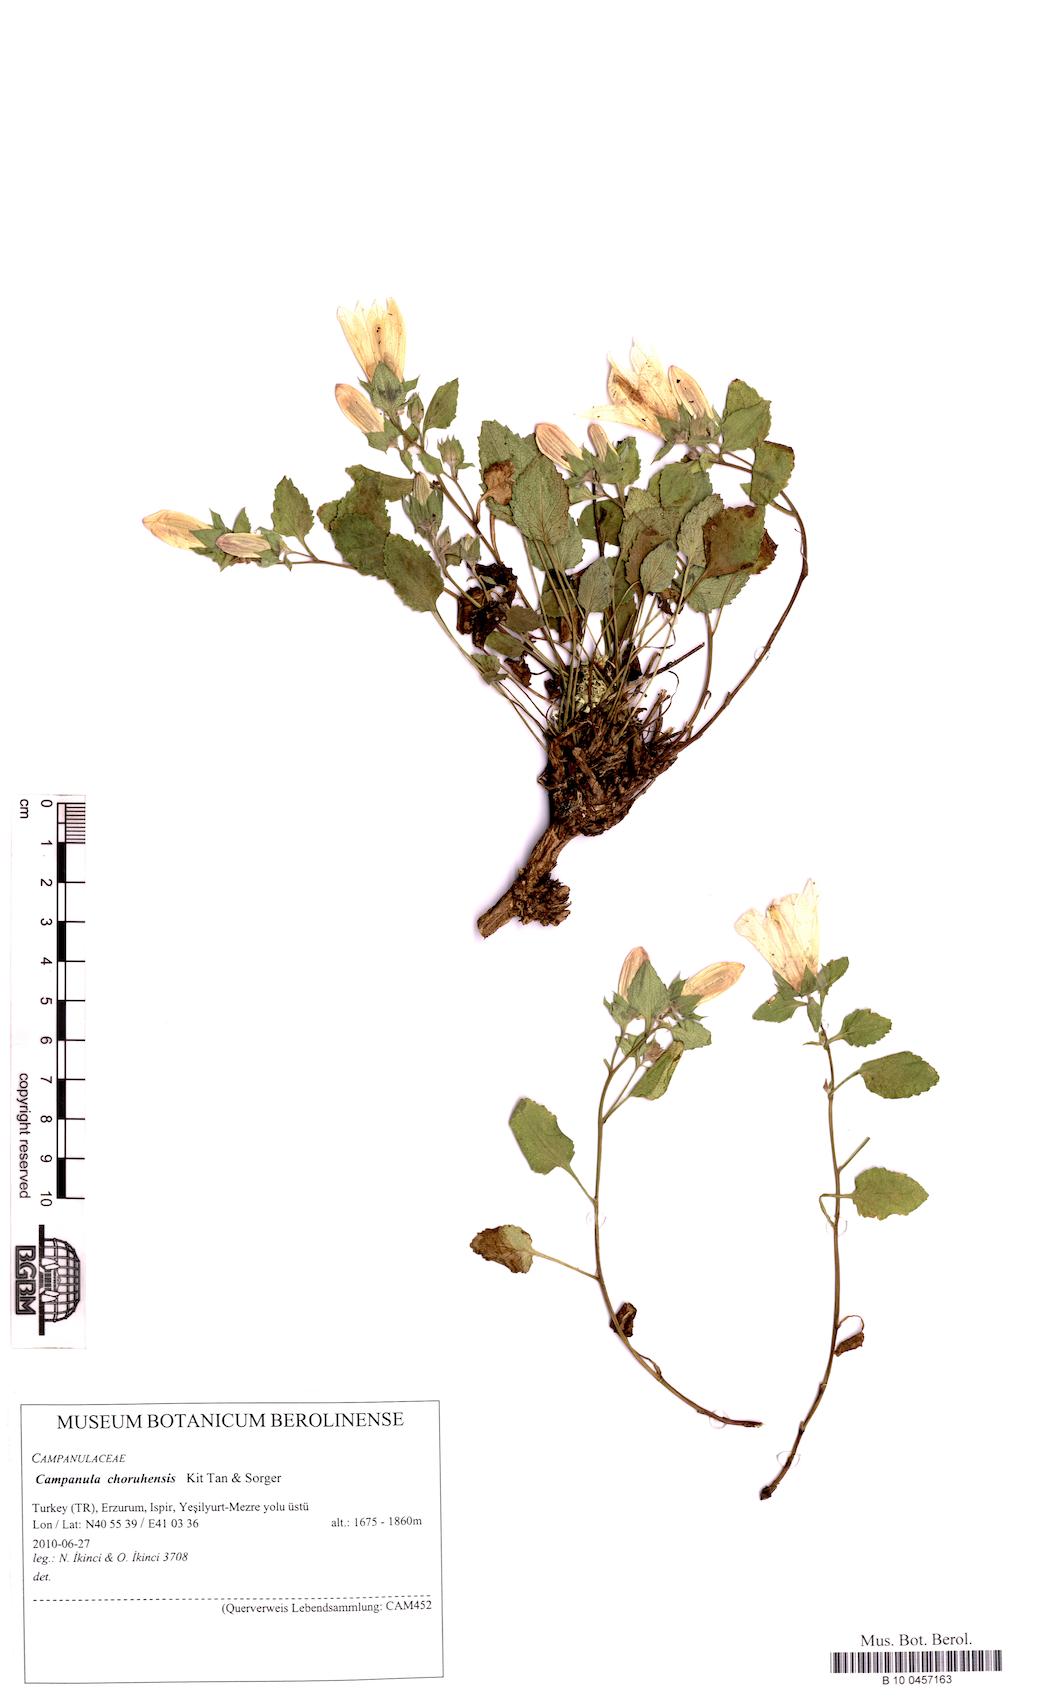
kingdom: Plantae
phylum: Tracheophyta
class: Magnoliopsida
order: Asterales
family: Campanulaceae
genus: Campanula
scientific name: Campanula choruhensis
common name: Choruhian bellflower
